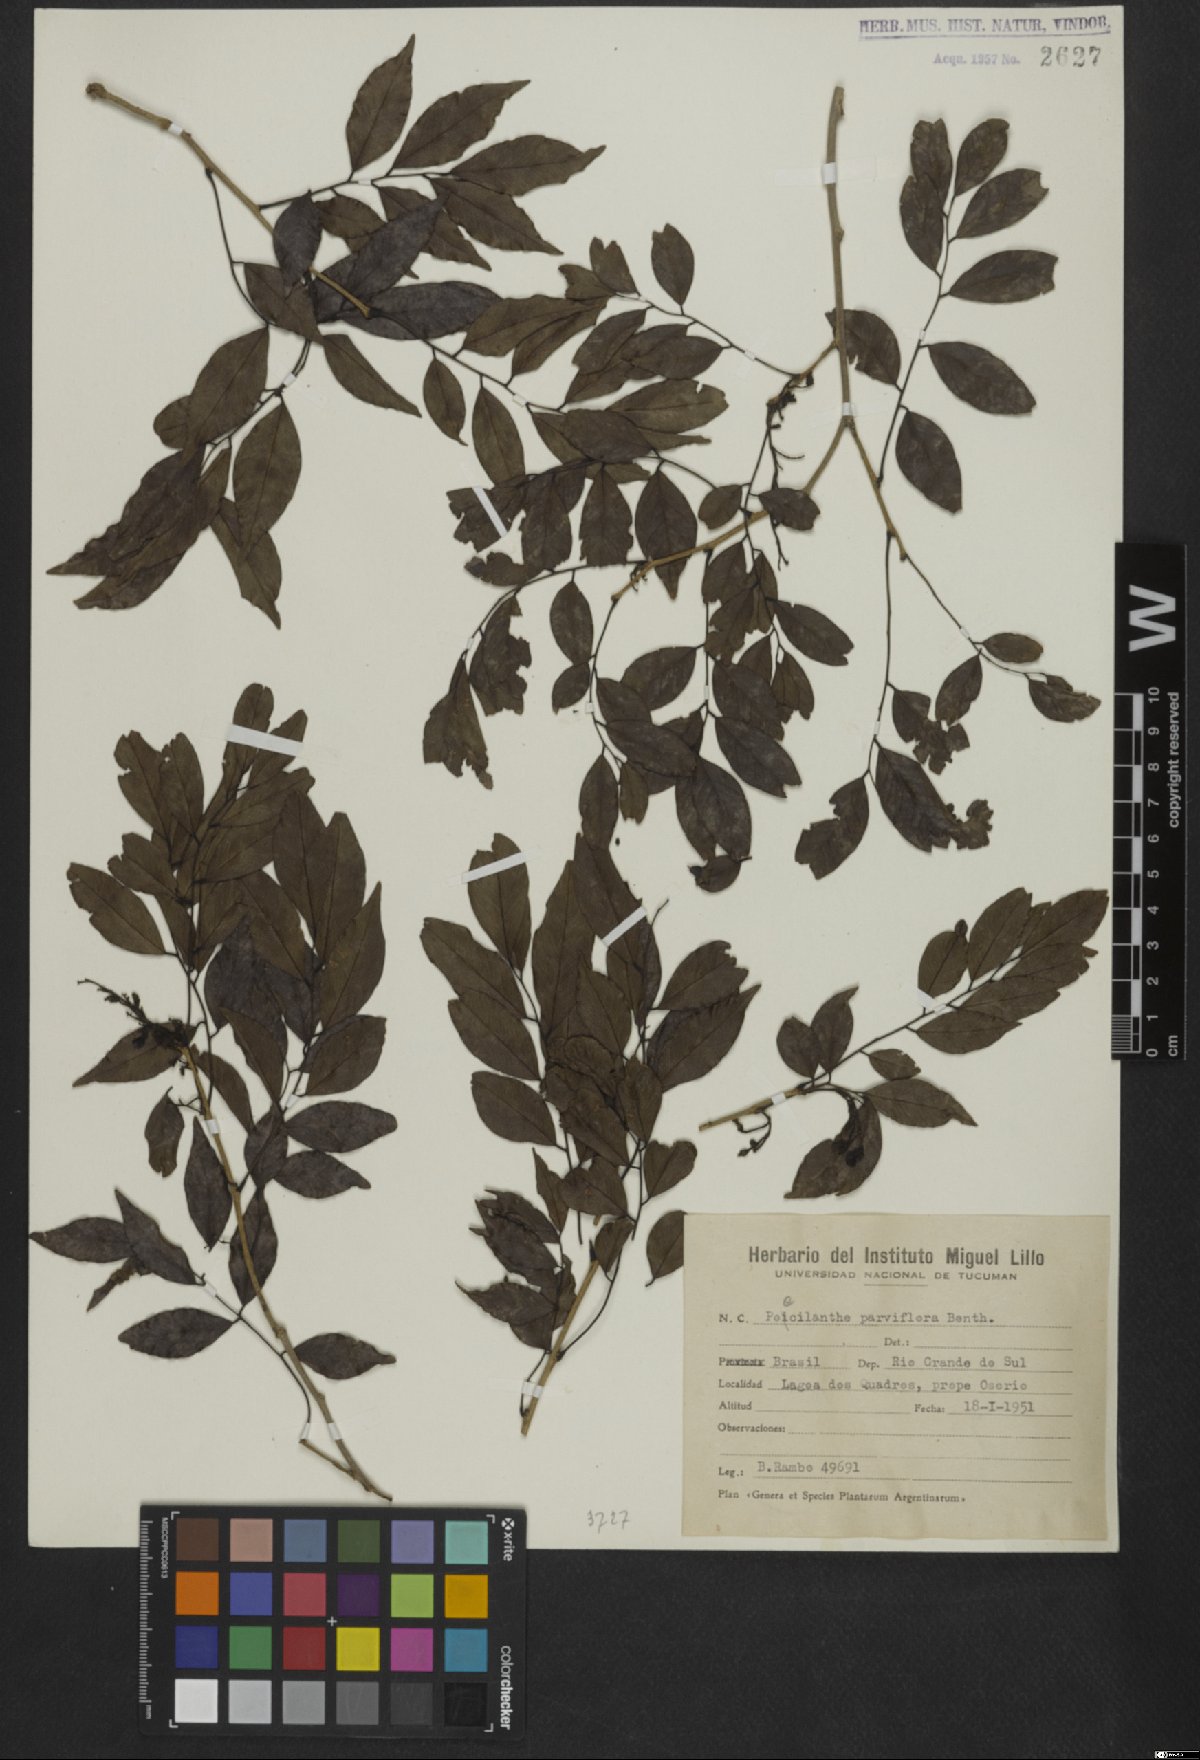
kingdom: Plantae
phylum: Tracheophyta
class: Magnoliopsida
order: Fabales
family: Fabaceae
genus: Poecilanthe
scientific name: Poecilanthe parviflora
